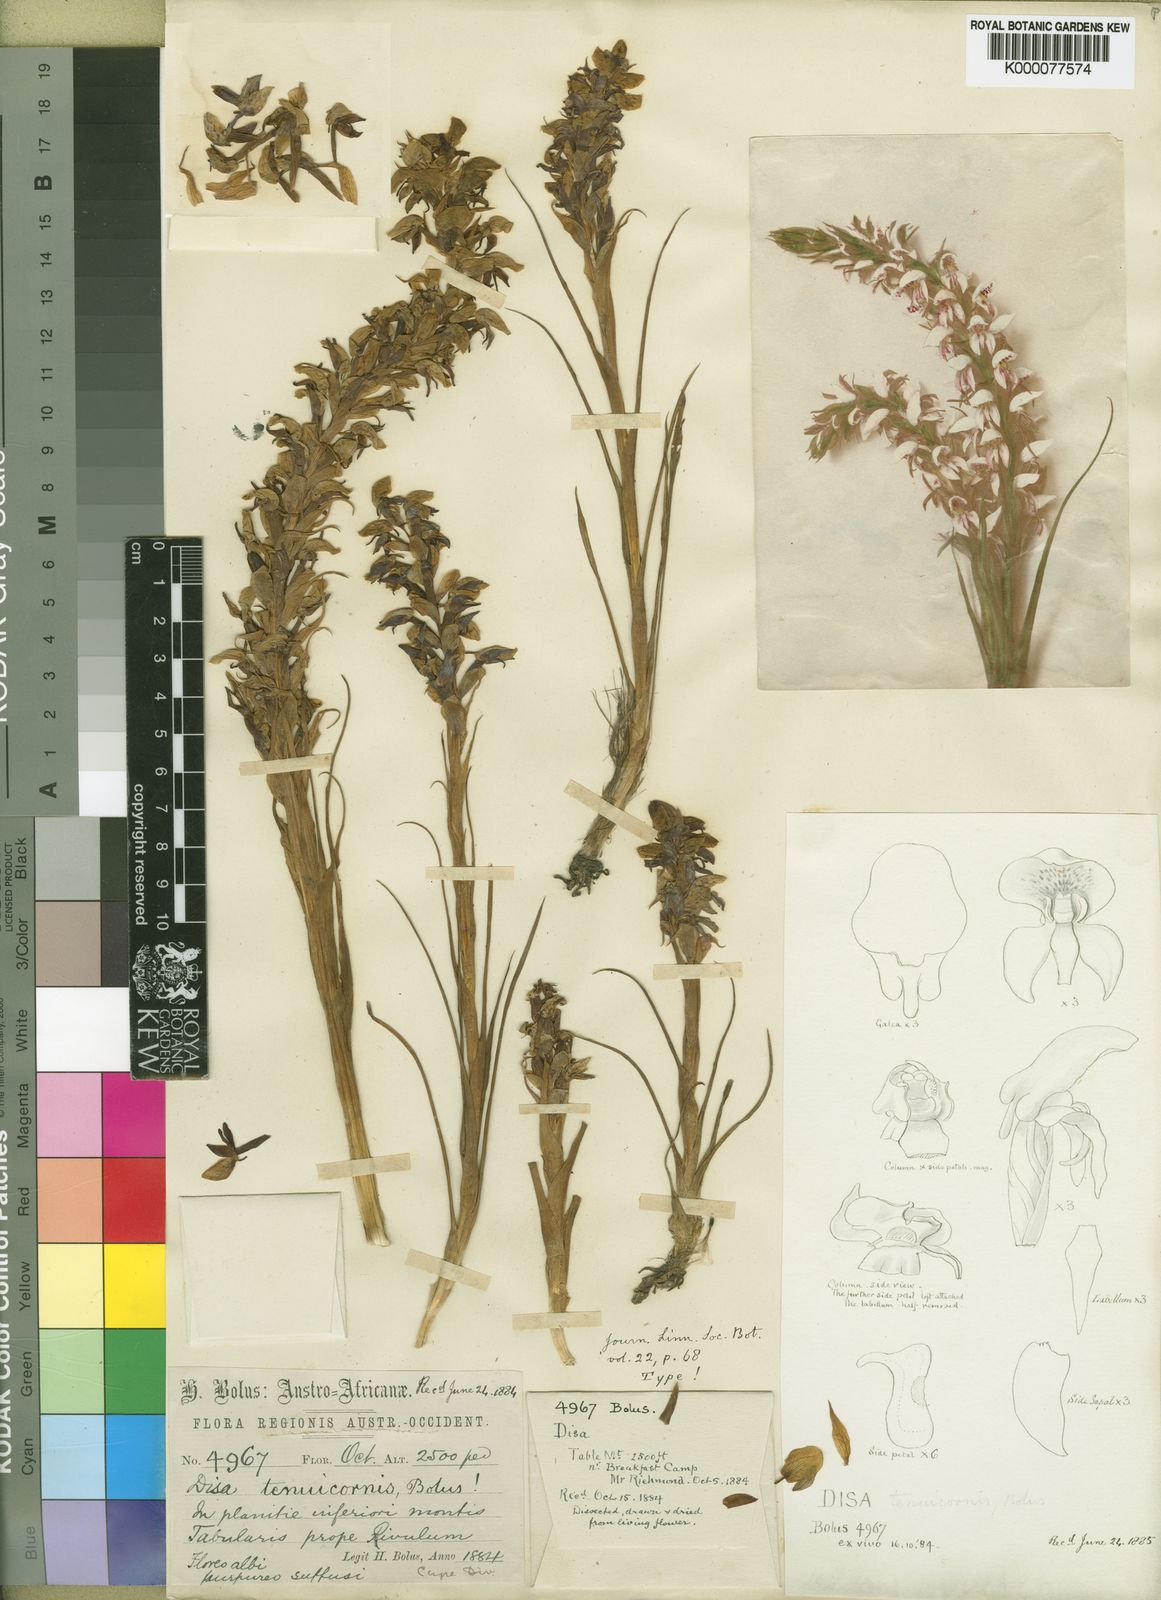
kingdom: Plantae
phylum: Tracheophyta
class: Liliopsida
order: Asparagales
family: Orchidaceae
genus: Disa
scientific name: Disa tenuicornis
